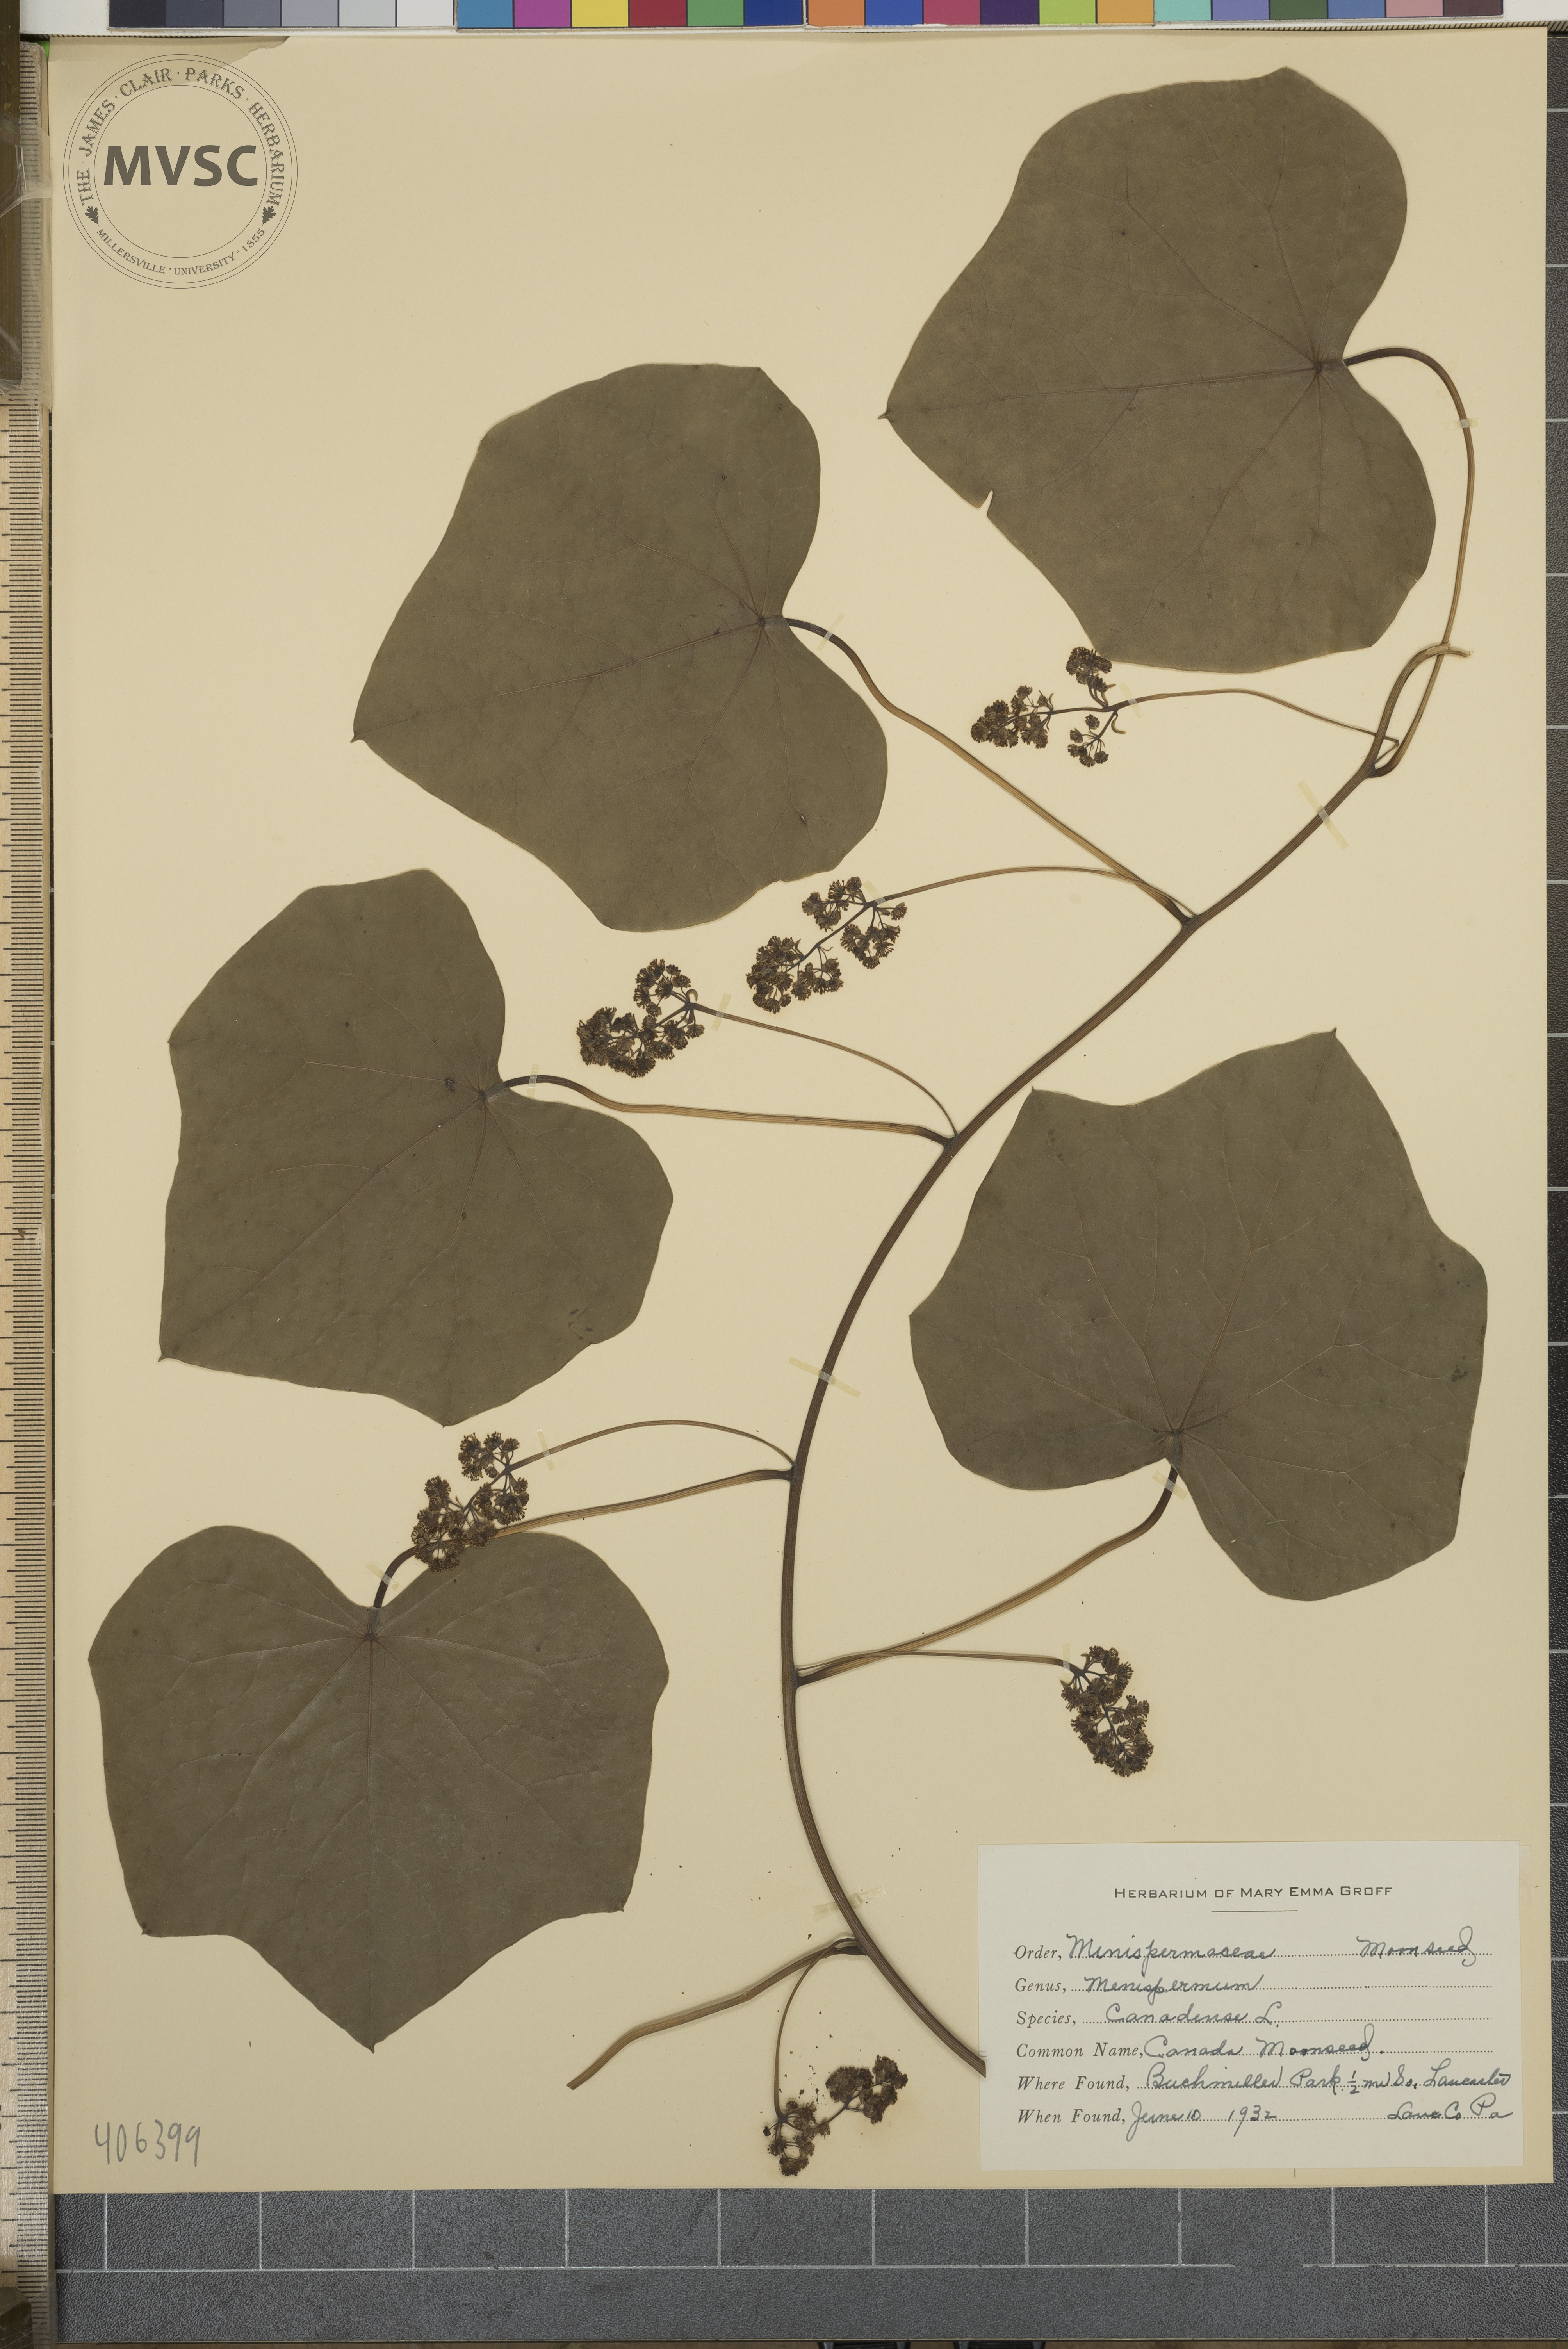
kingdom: Plantae
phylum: Tracheophyta
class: Magnoliopsida
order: Ranunculales
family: Menispermaceae
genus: Menispermum
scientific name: Menispermum canadense
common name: Canada moonseed
